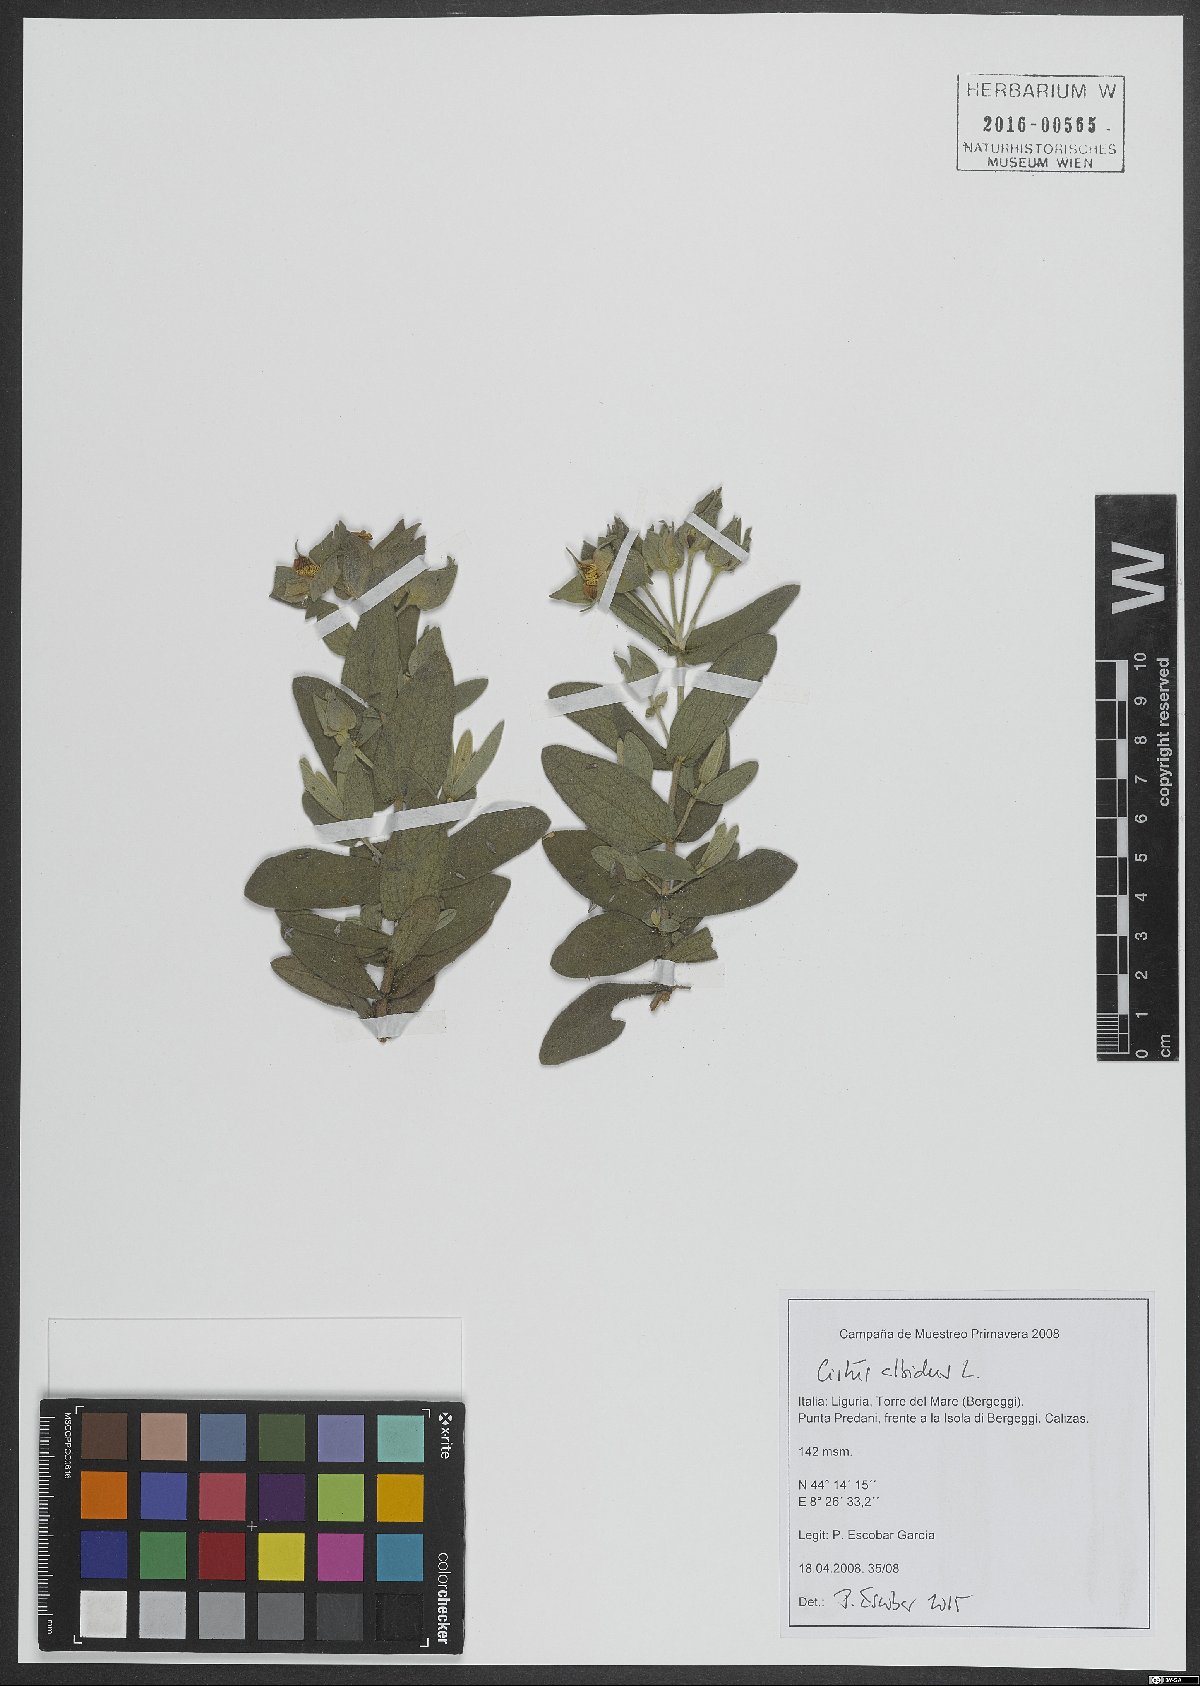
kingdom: Plantae
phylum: Tracheophyta
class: Magnoliopsida
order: Malvales
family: Cistaceae
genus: Cistus
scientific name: Cistus albidus
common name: White-leaf rock-rose
